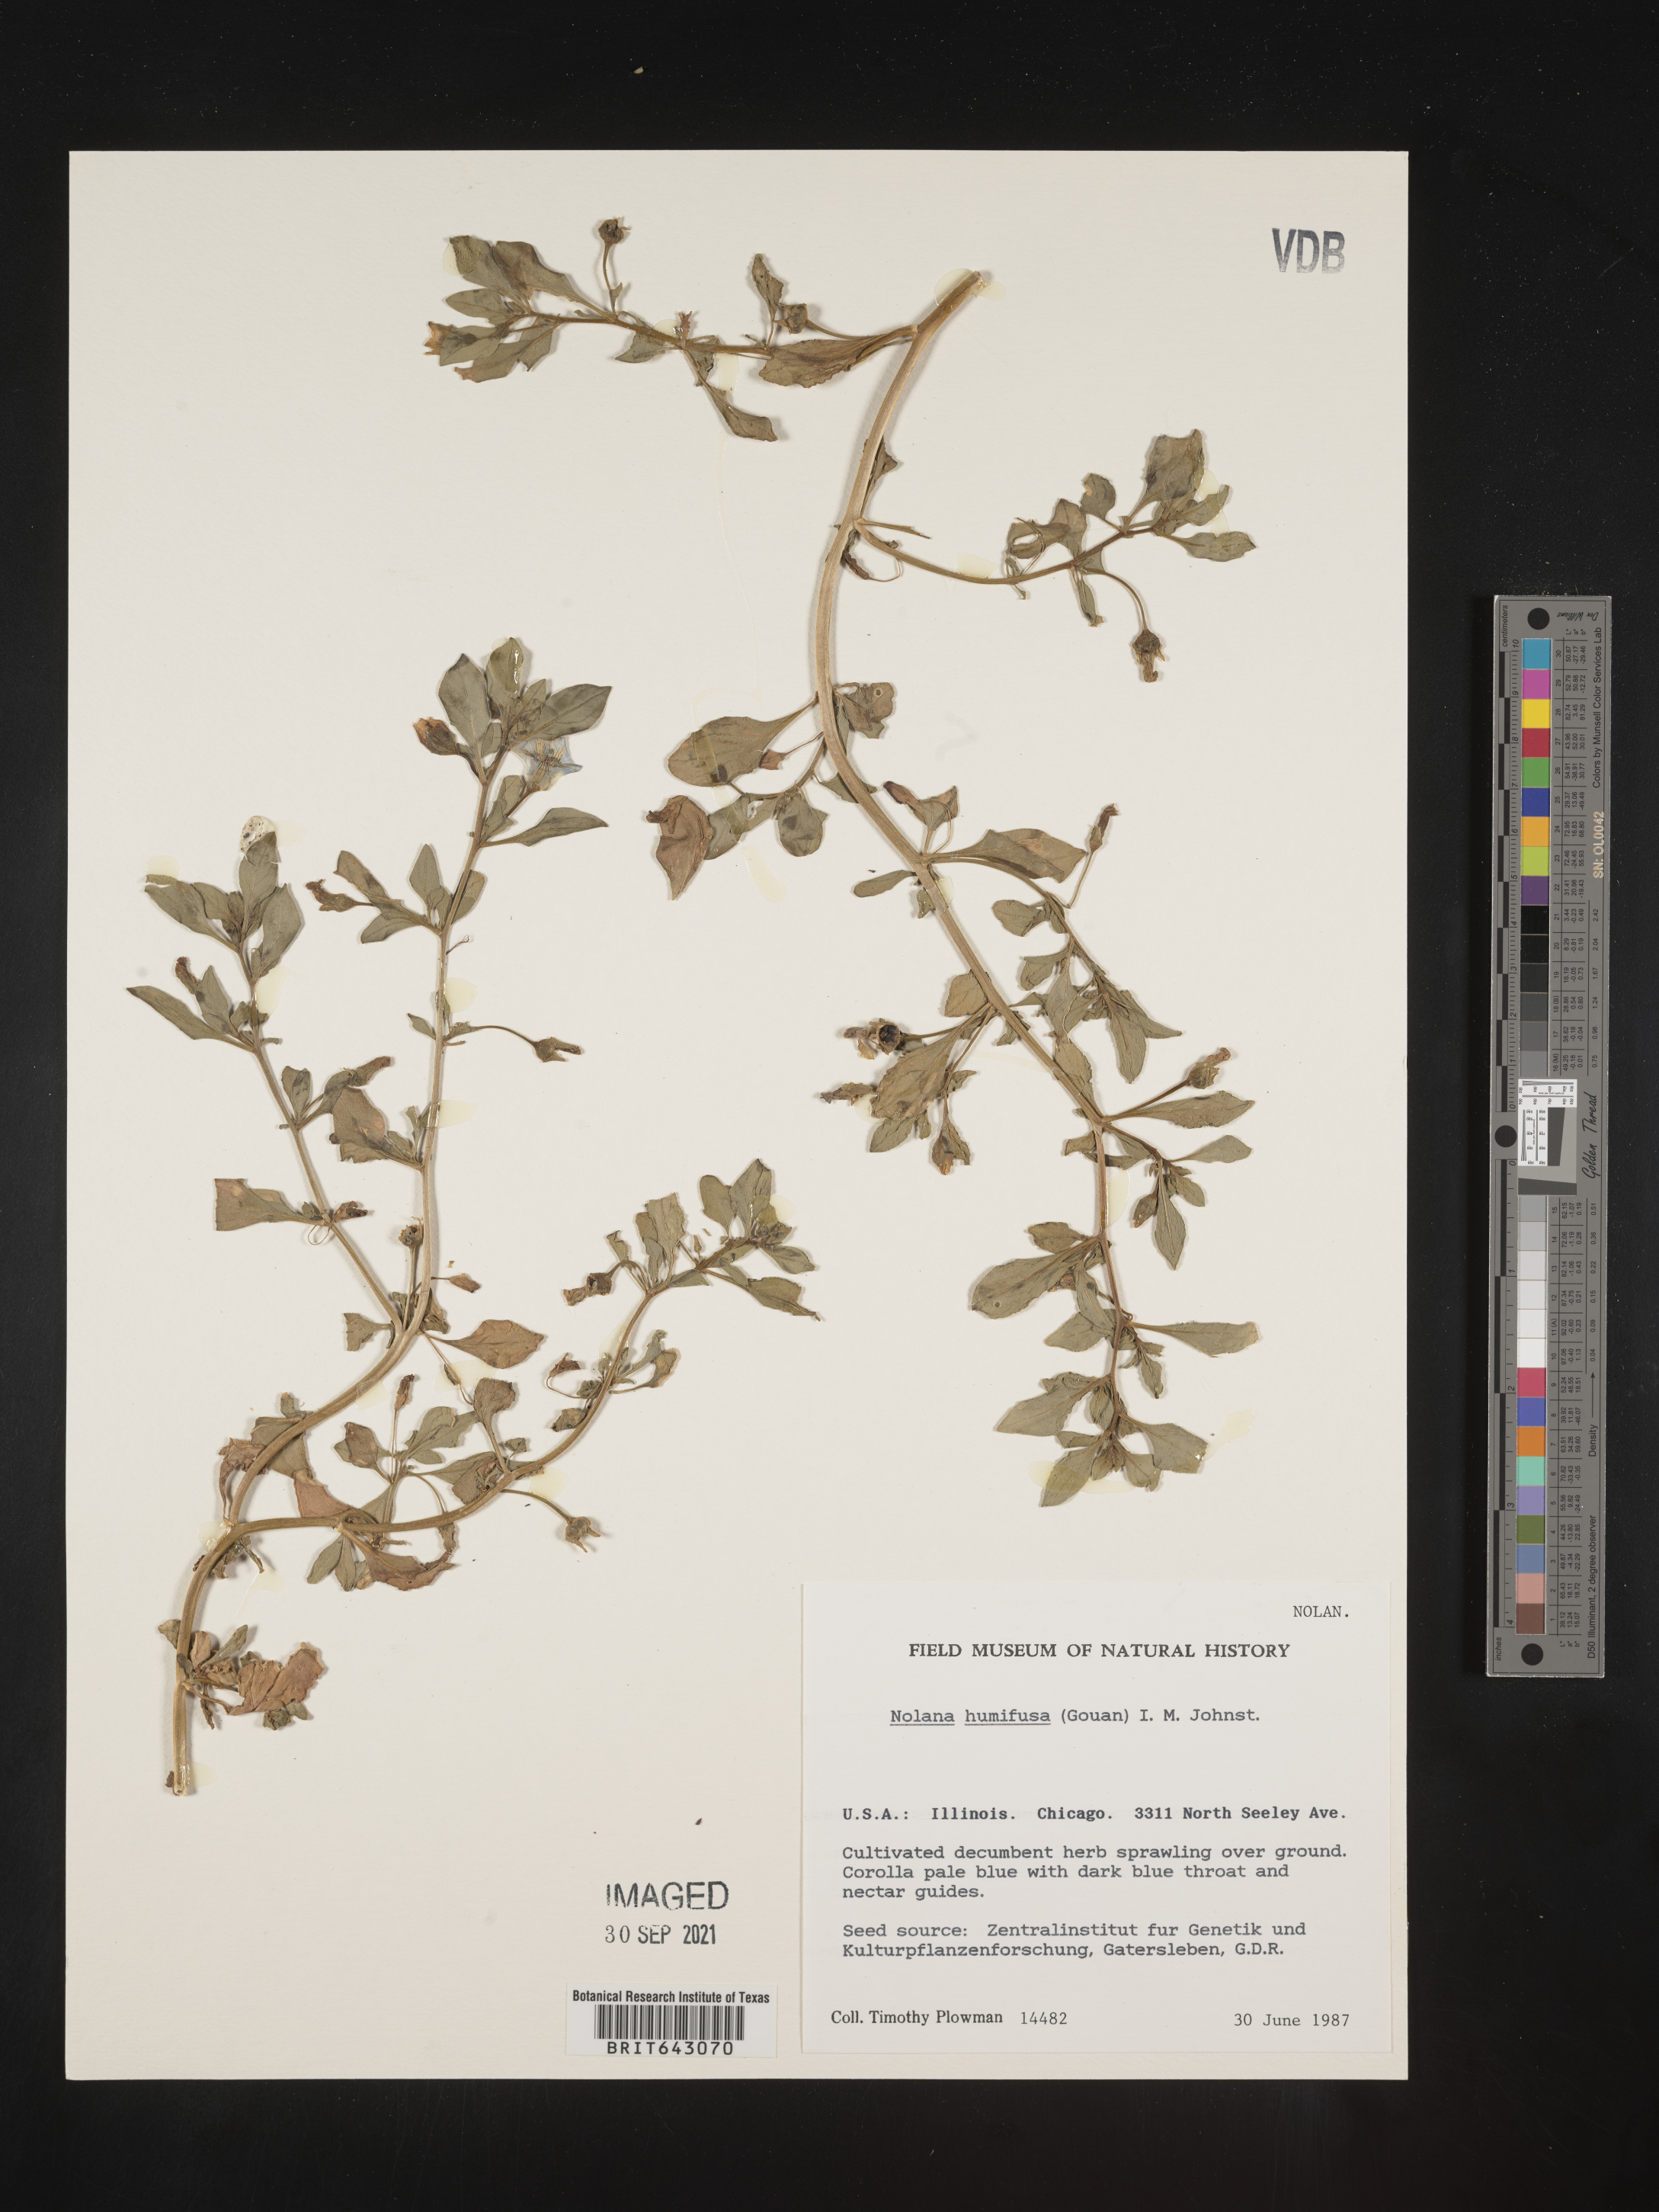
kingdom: Plantae
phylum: Tracheophyta
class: Magnoliopsida
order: Solanales
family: Solanaceae
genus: Nolana
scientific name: Nolana
